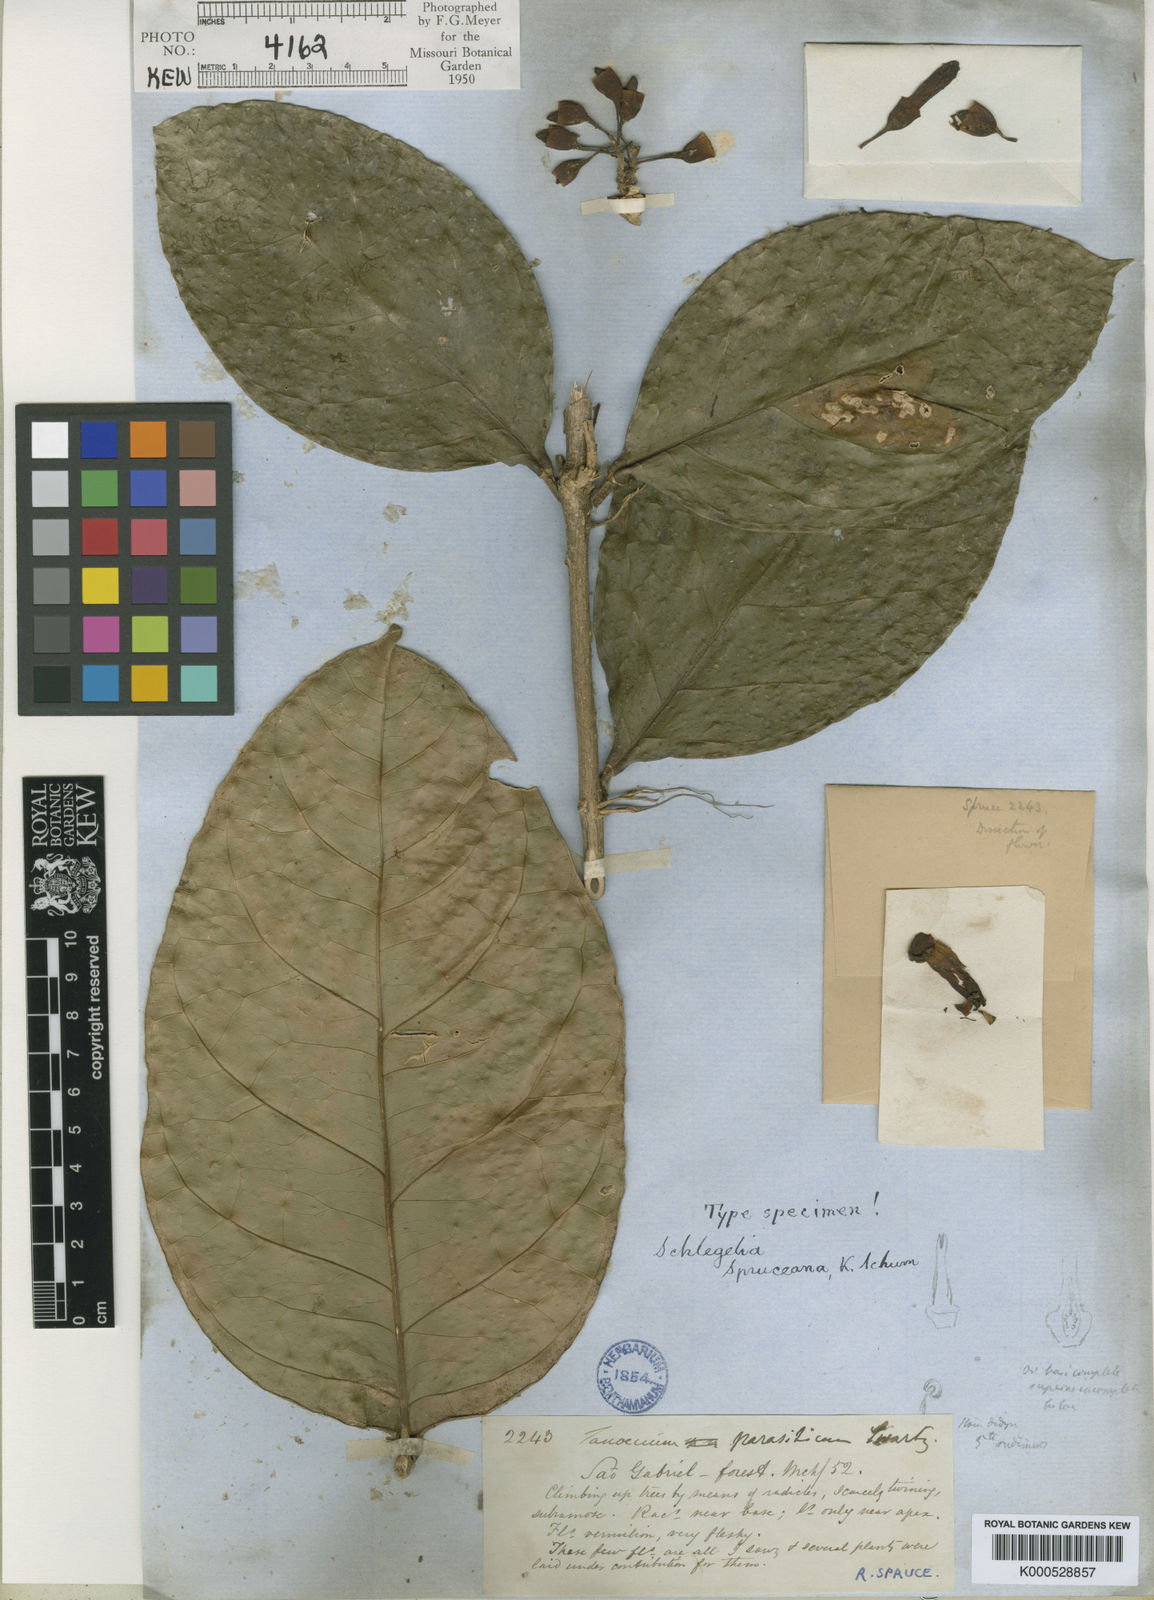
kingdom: Plantae
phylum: Tracheophyta
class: Magnoliopsida
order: Lamiales
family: Schlegeliaceae
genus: Schlegelia
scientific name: Schlegelia spruceana
